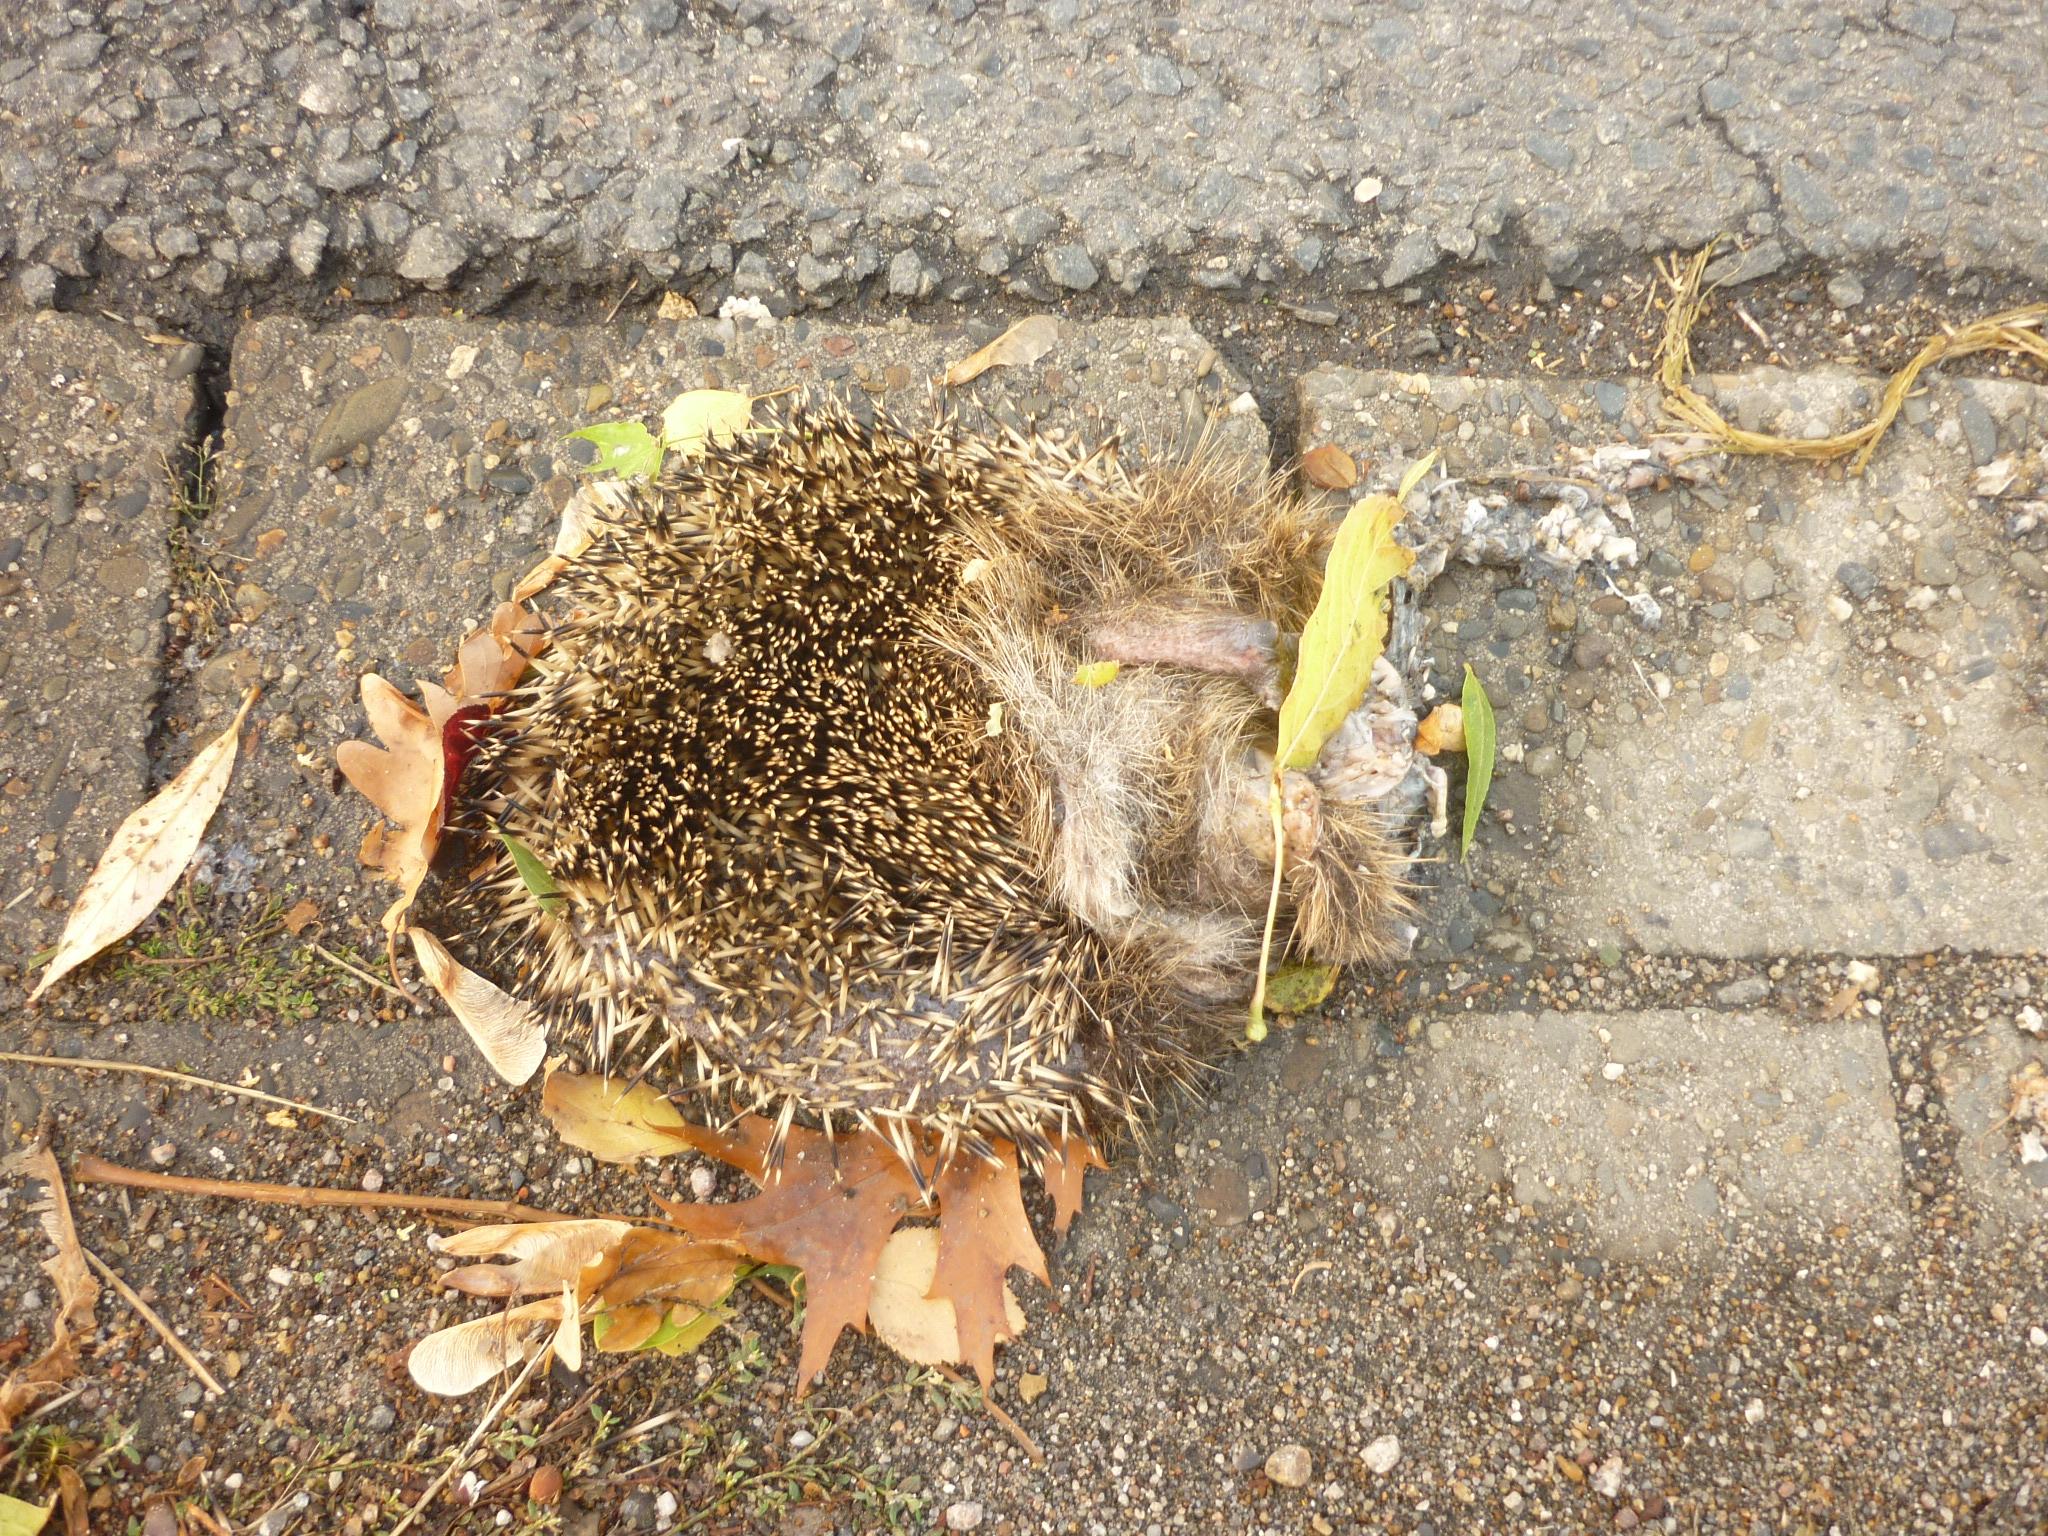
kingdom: Animalia
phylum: Chordata
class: Mammalia
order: Erinaceomorpha
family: Erinaceidae
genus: Erinaceus
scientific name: Erinaceus
